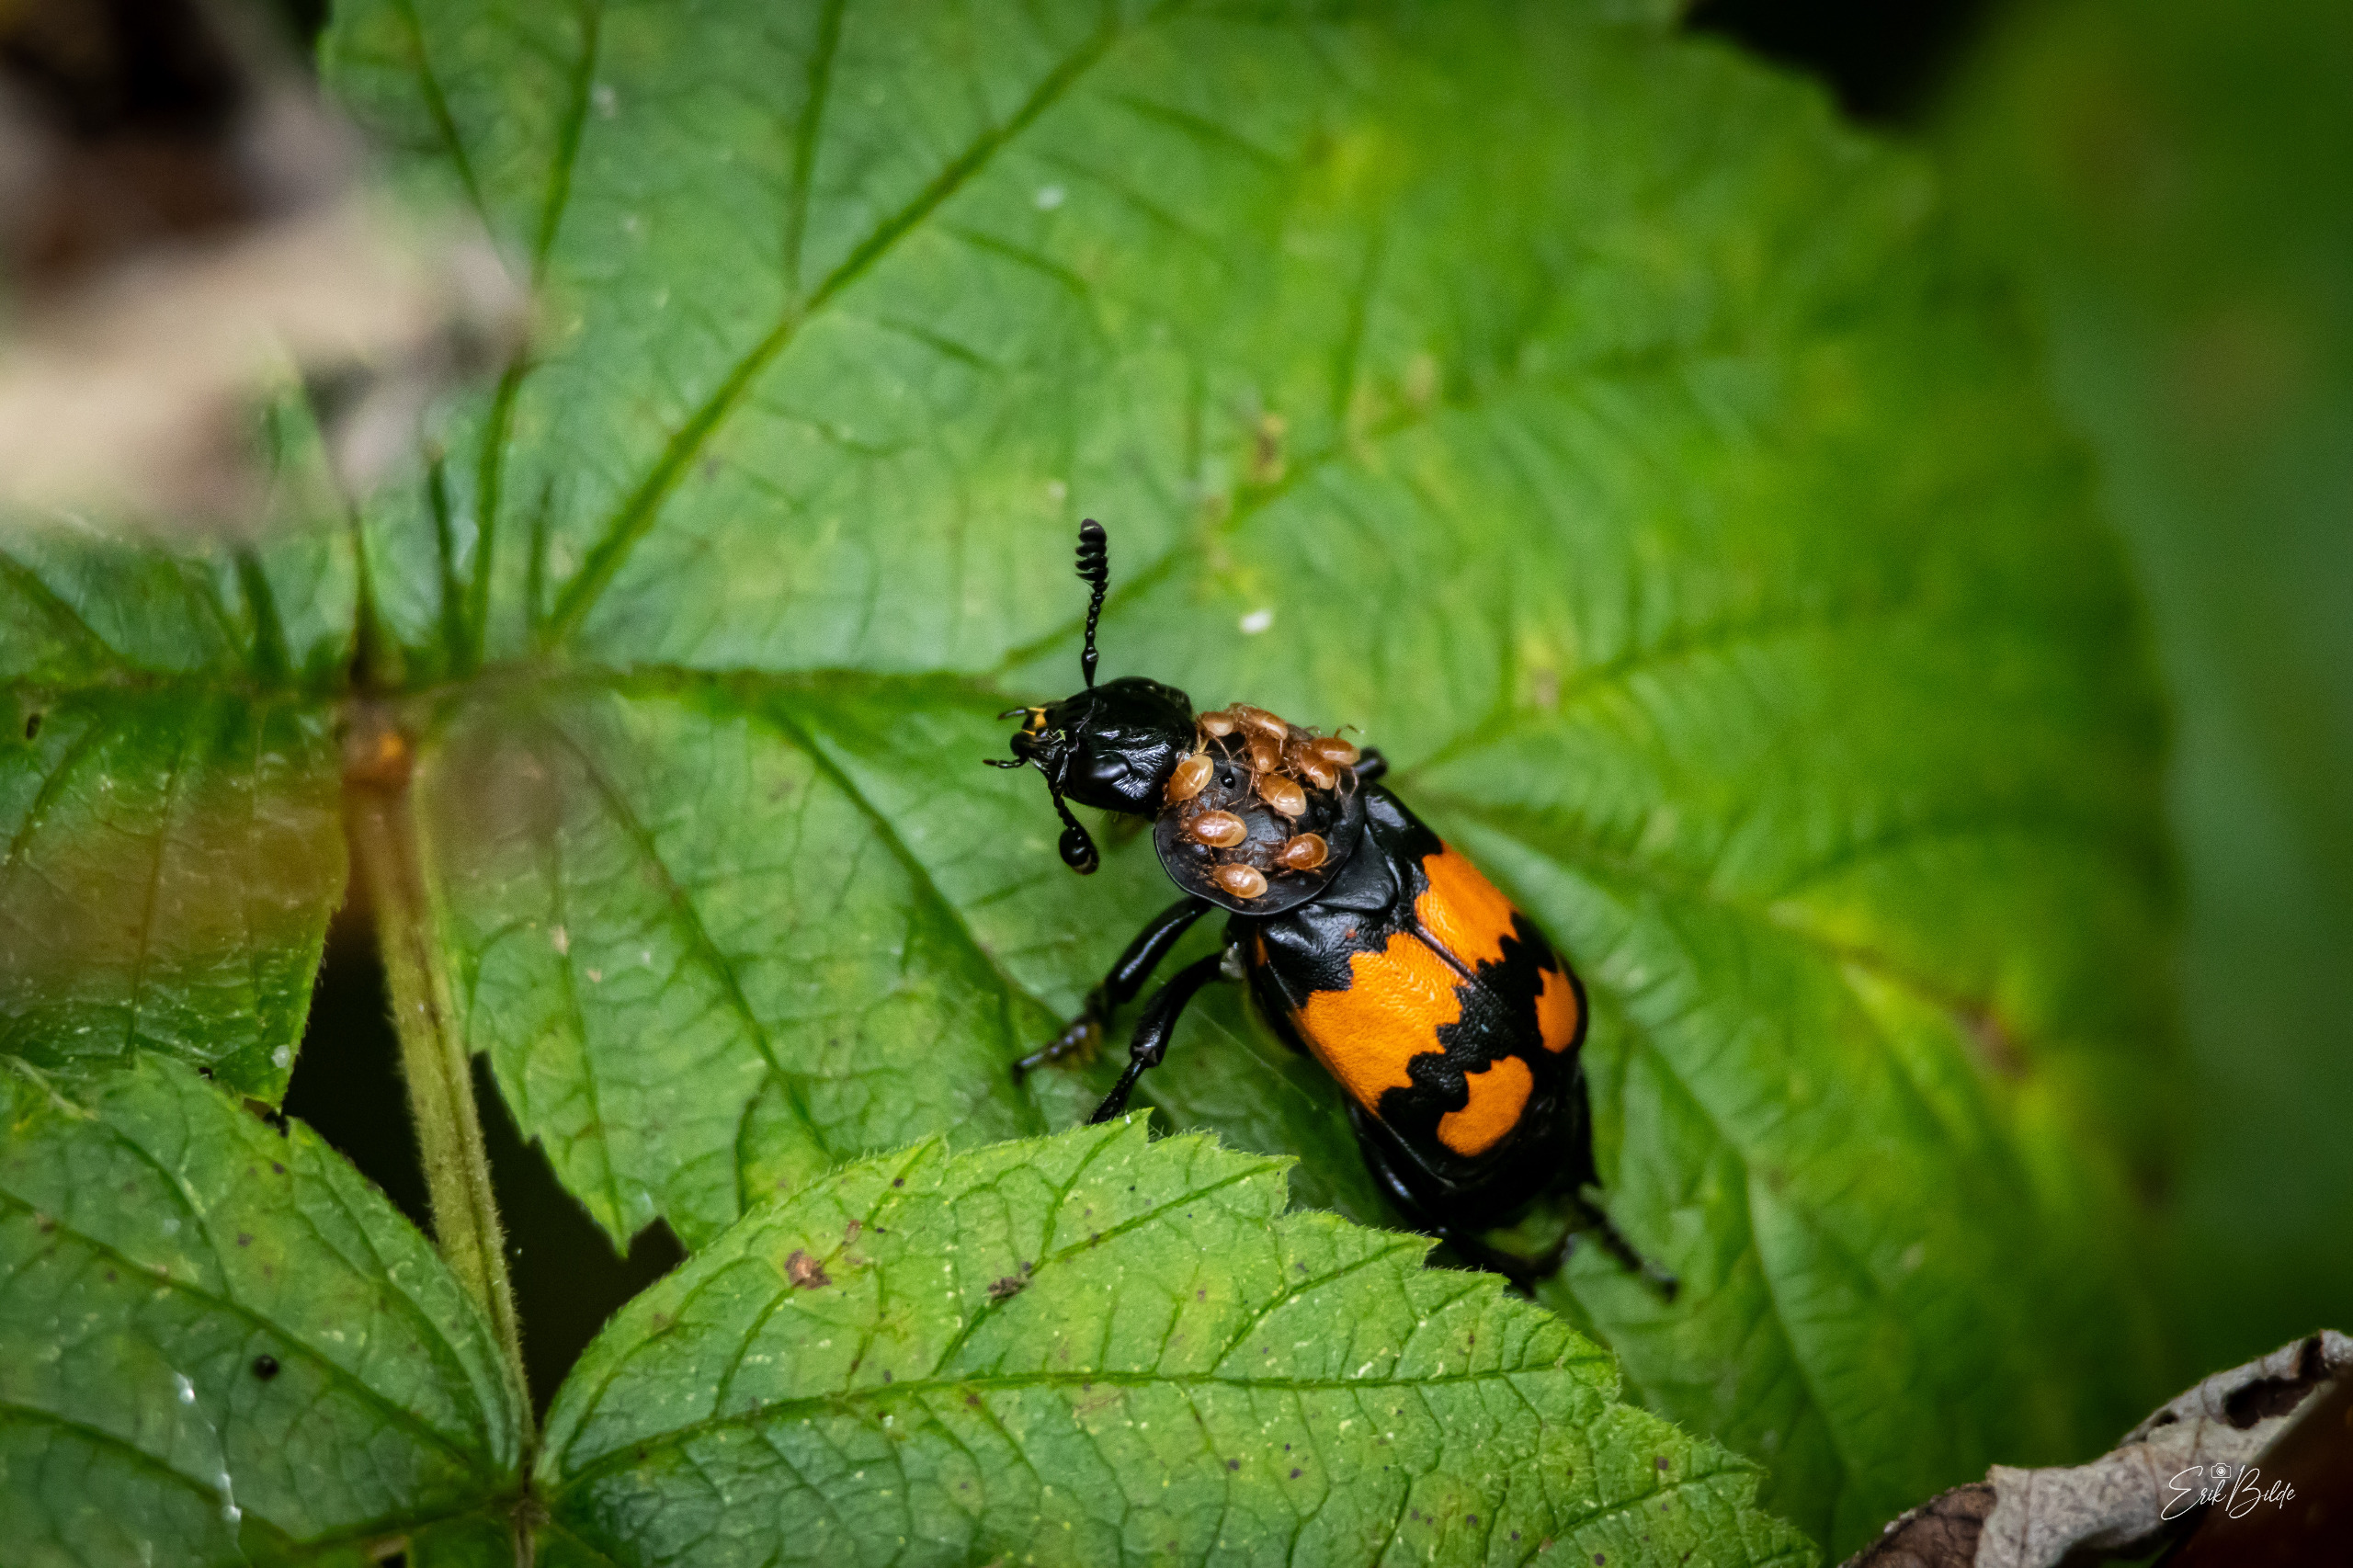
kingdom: Animalia
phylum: Arthropoda
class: Insecta
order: Coleoptera
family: Staphylinidae
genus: Nicrophorus
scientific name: Nicrophorus vespilloides
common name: Sortkøllet ådselgraver
